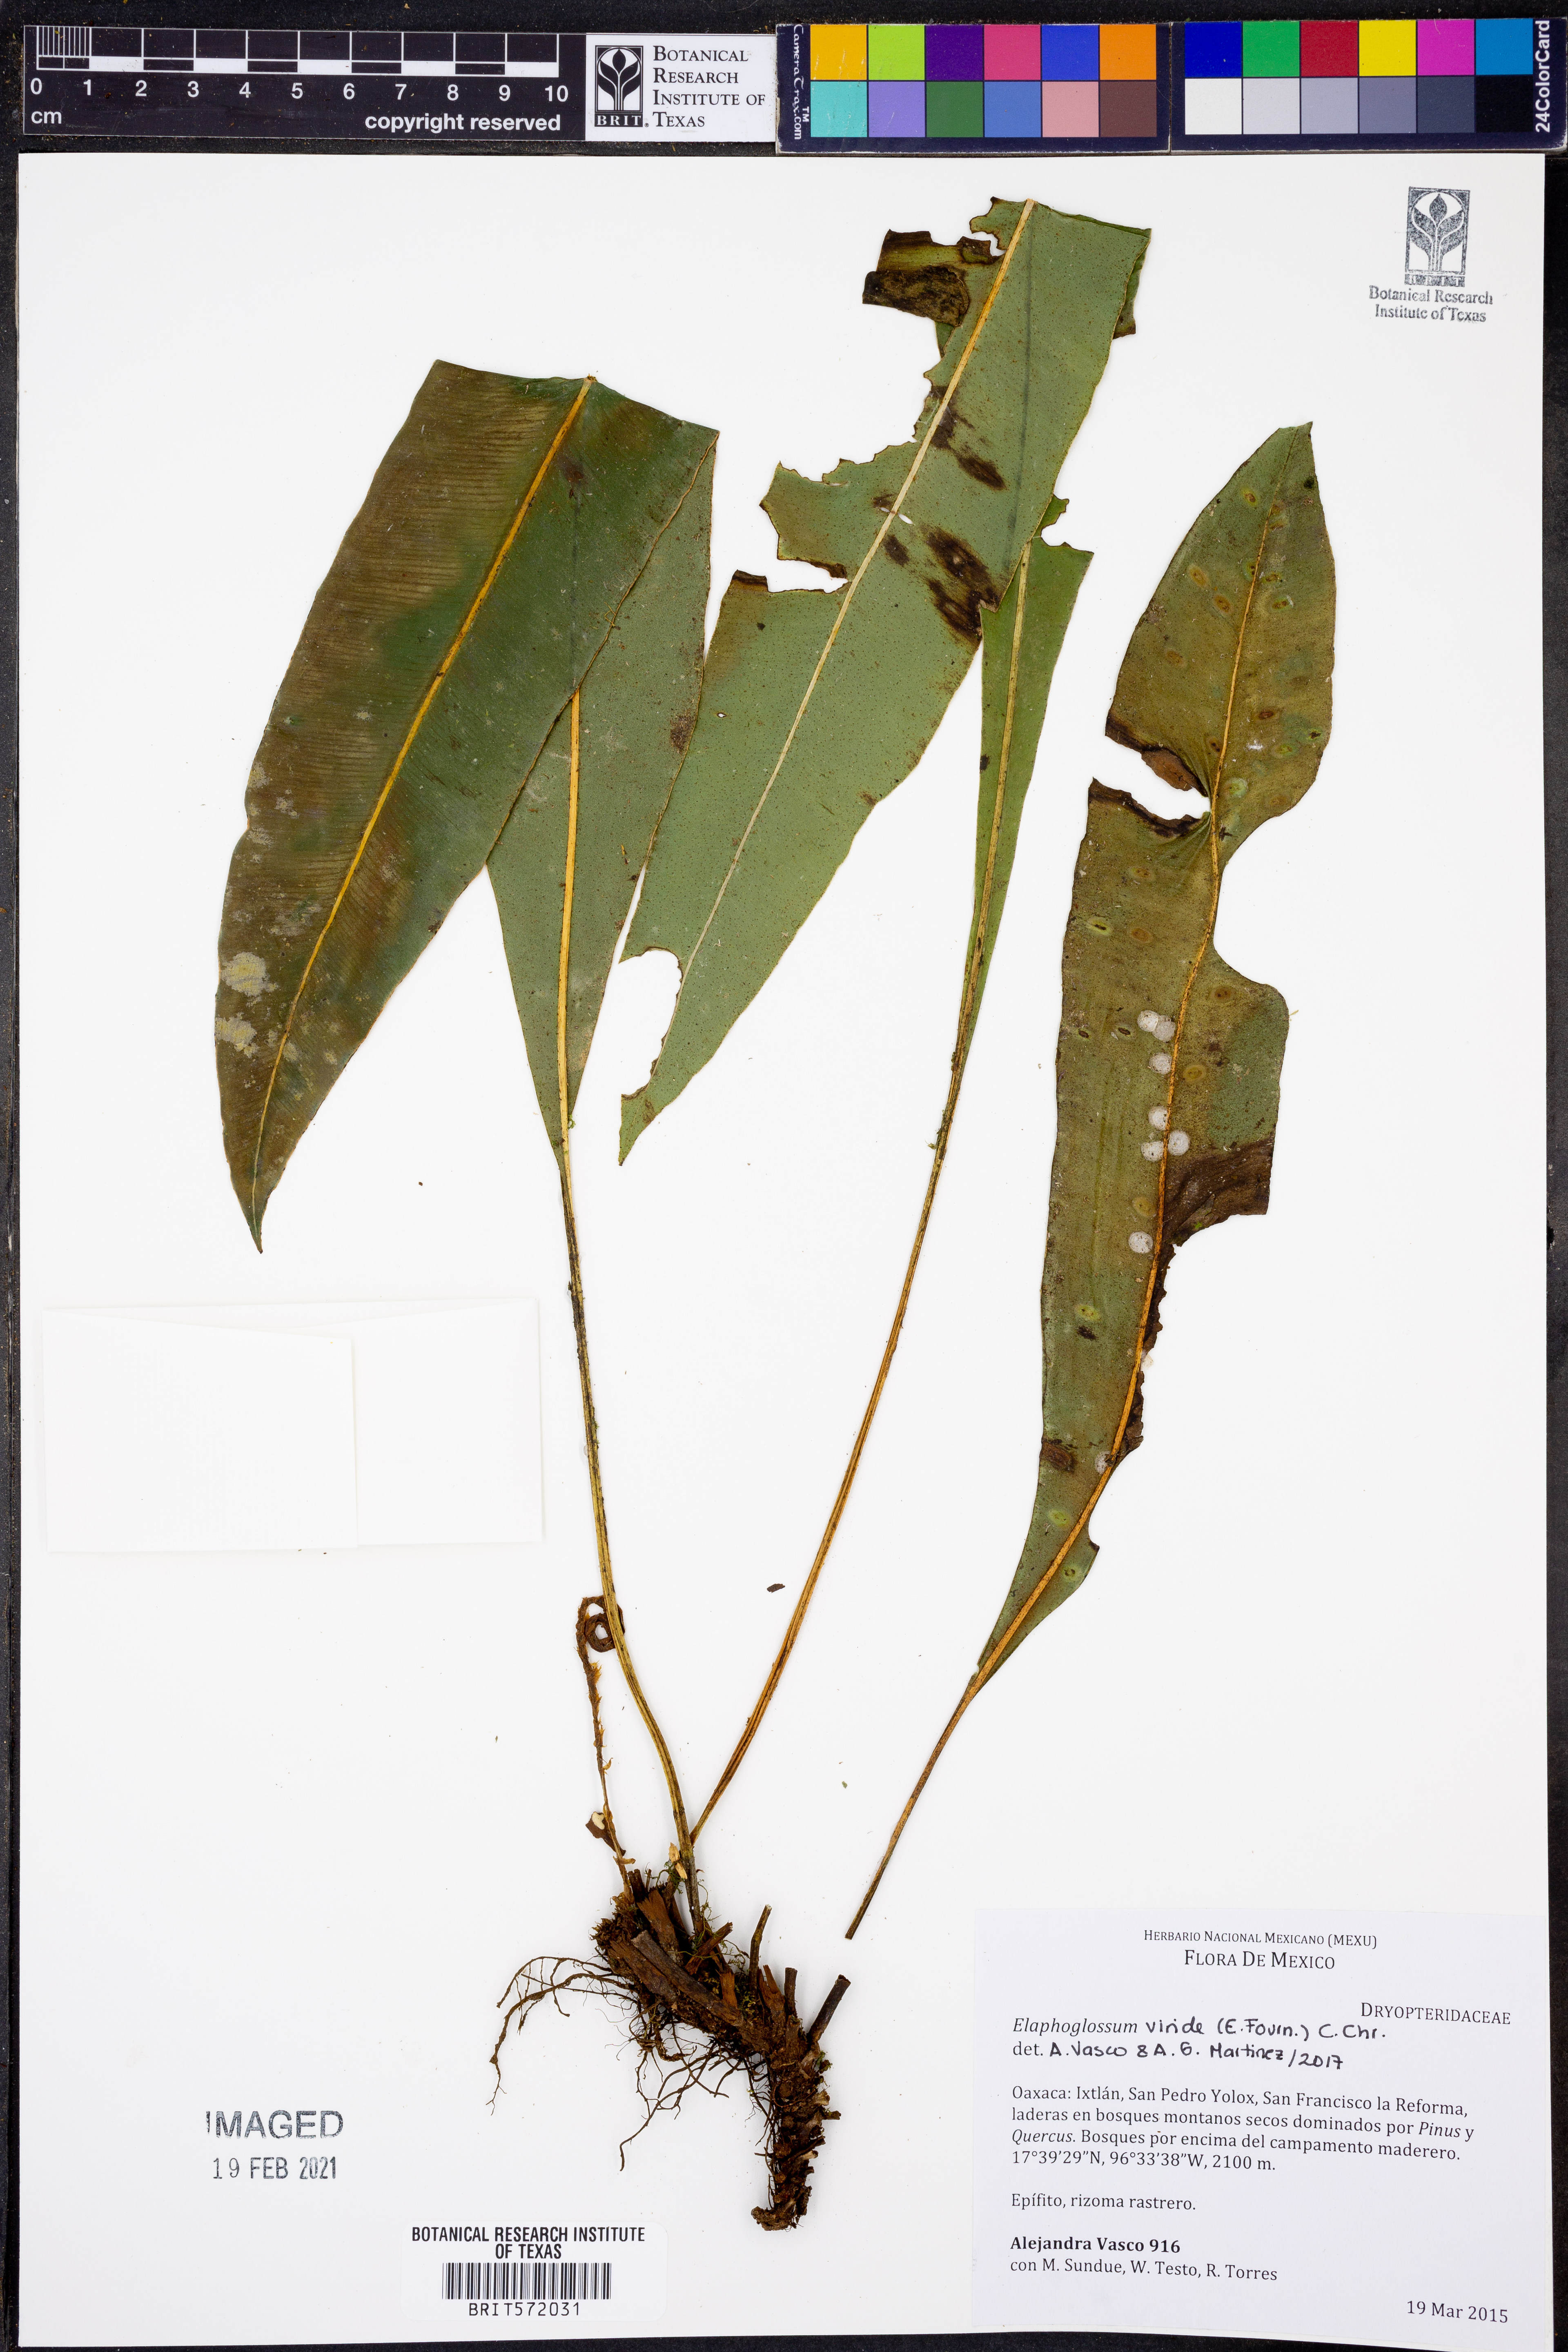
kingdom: Plantae
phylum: Tracheophyta
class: Polypodiopsida
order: Polypodiales
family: Dryopteridaceae
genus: Elaphoglossum
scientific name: Elaphoglossum viride
